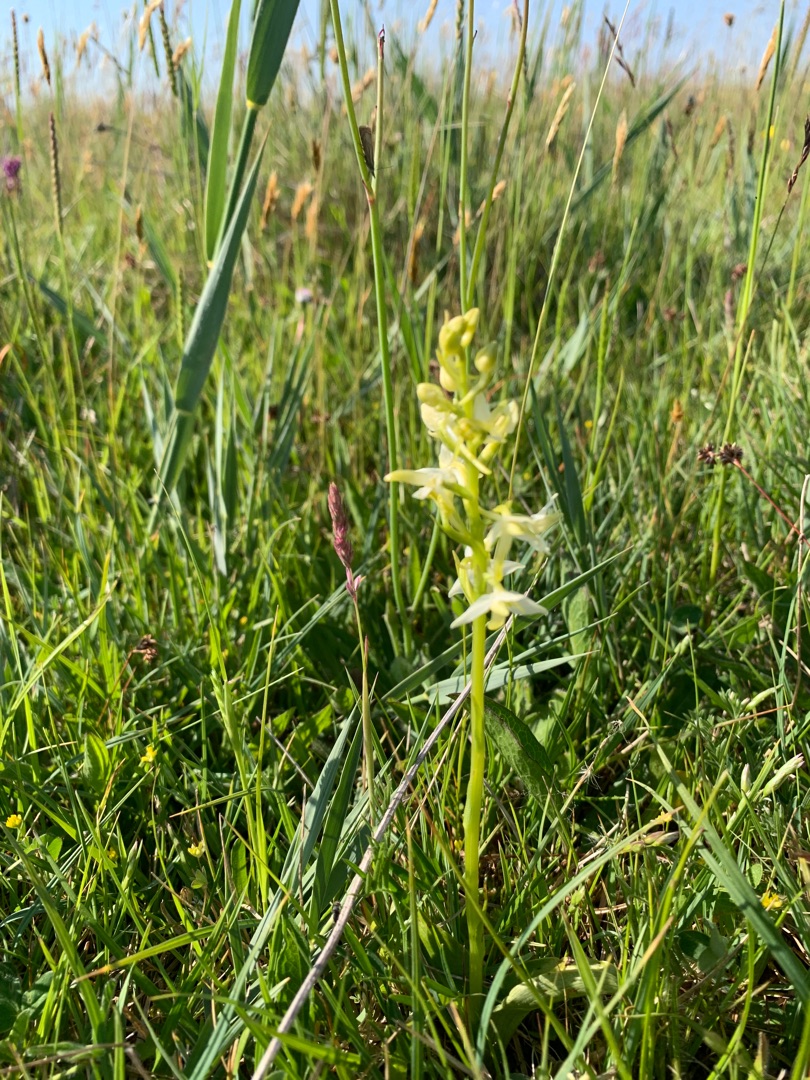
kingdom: Plantae
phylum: Tracheophyta
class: Liliopsida
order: Asparagales
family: Orchidaceae
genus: Platanthera
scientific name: Platanthera bifolia
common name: Bakke-gøgelilje
